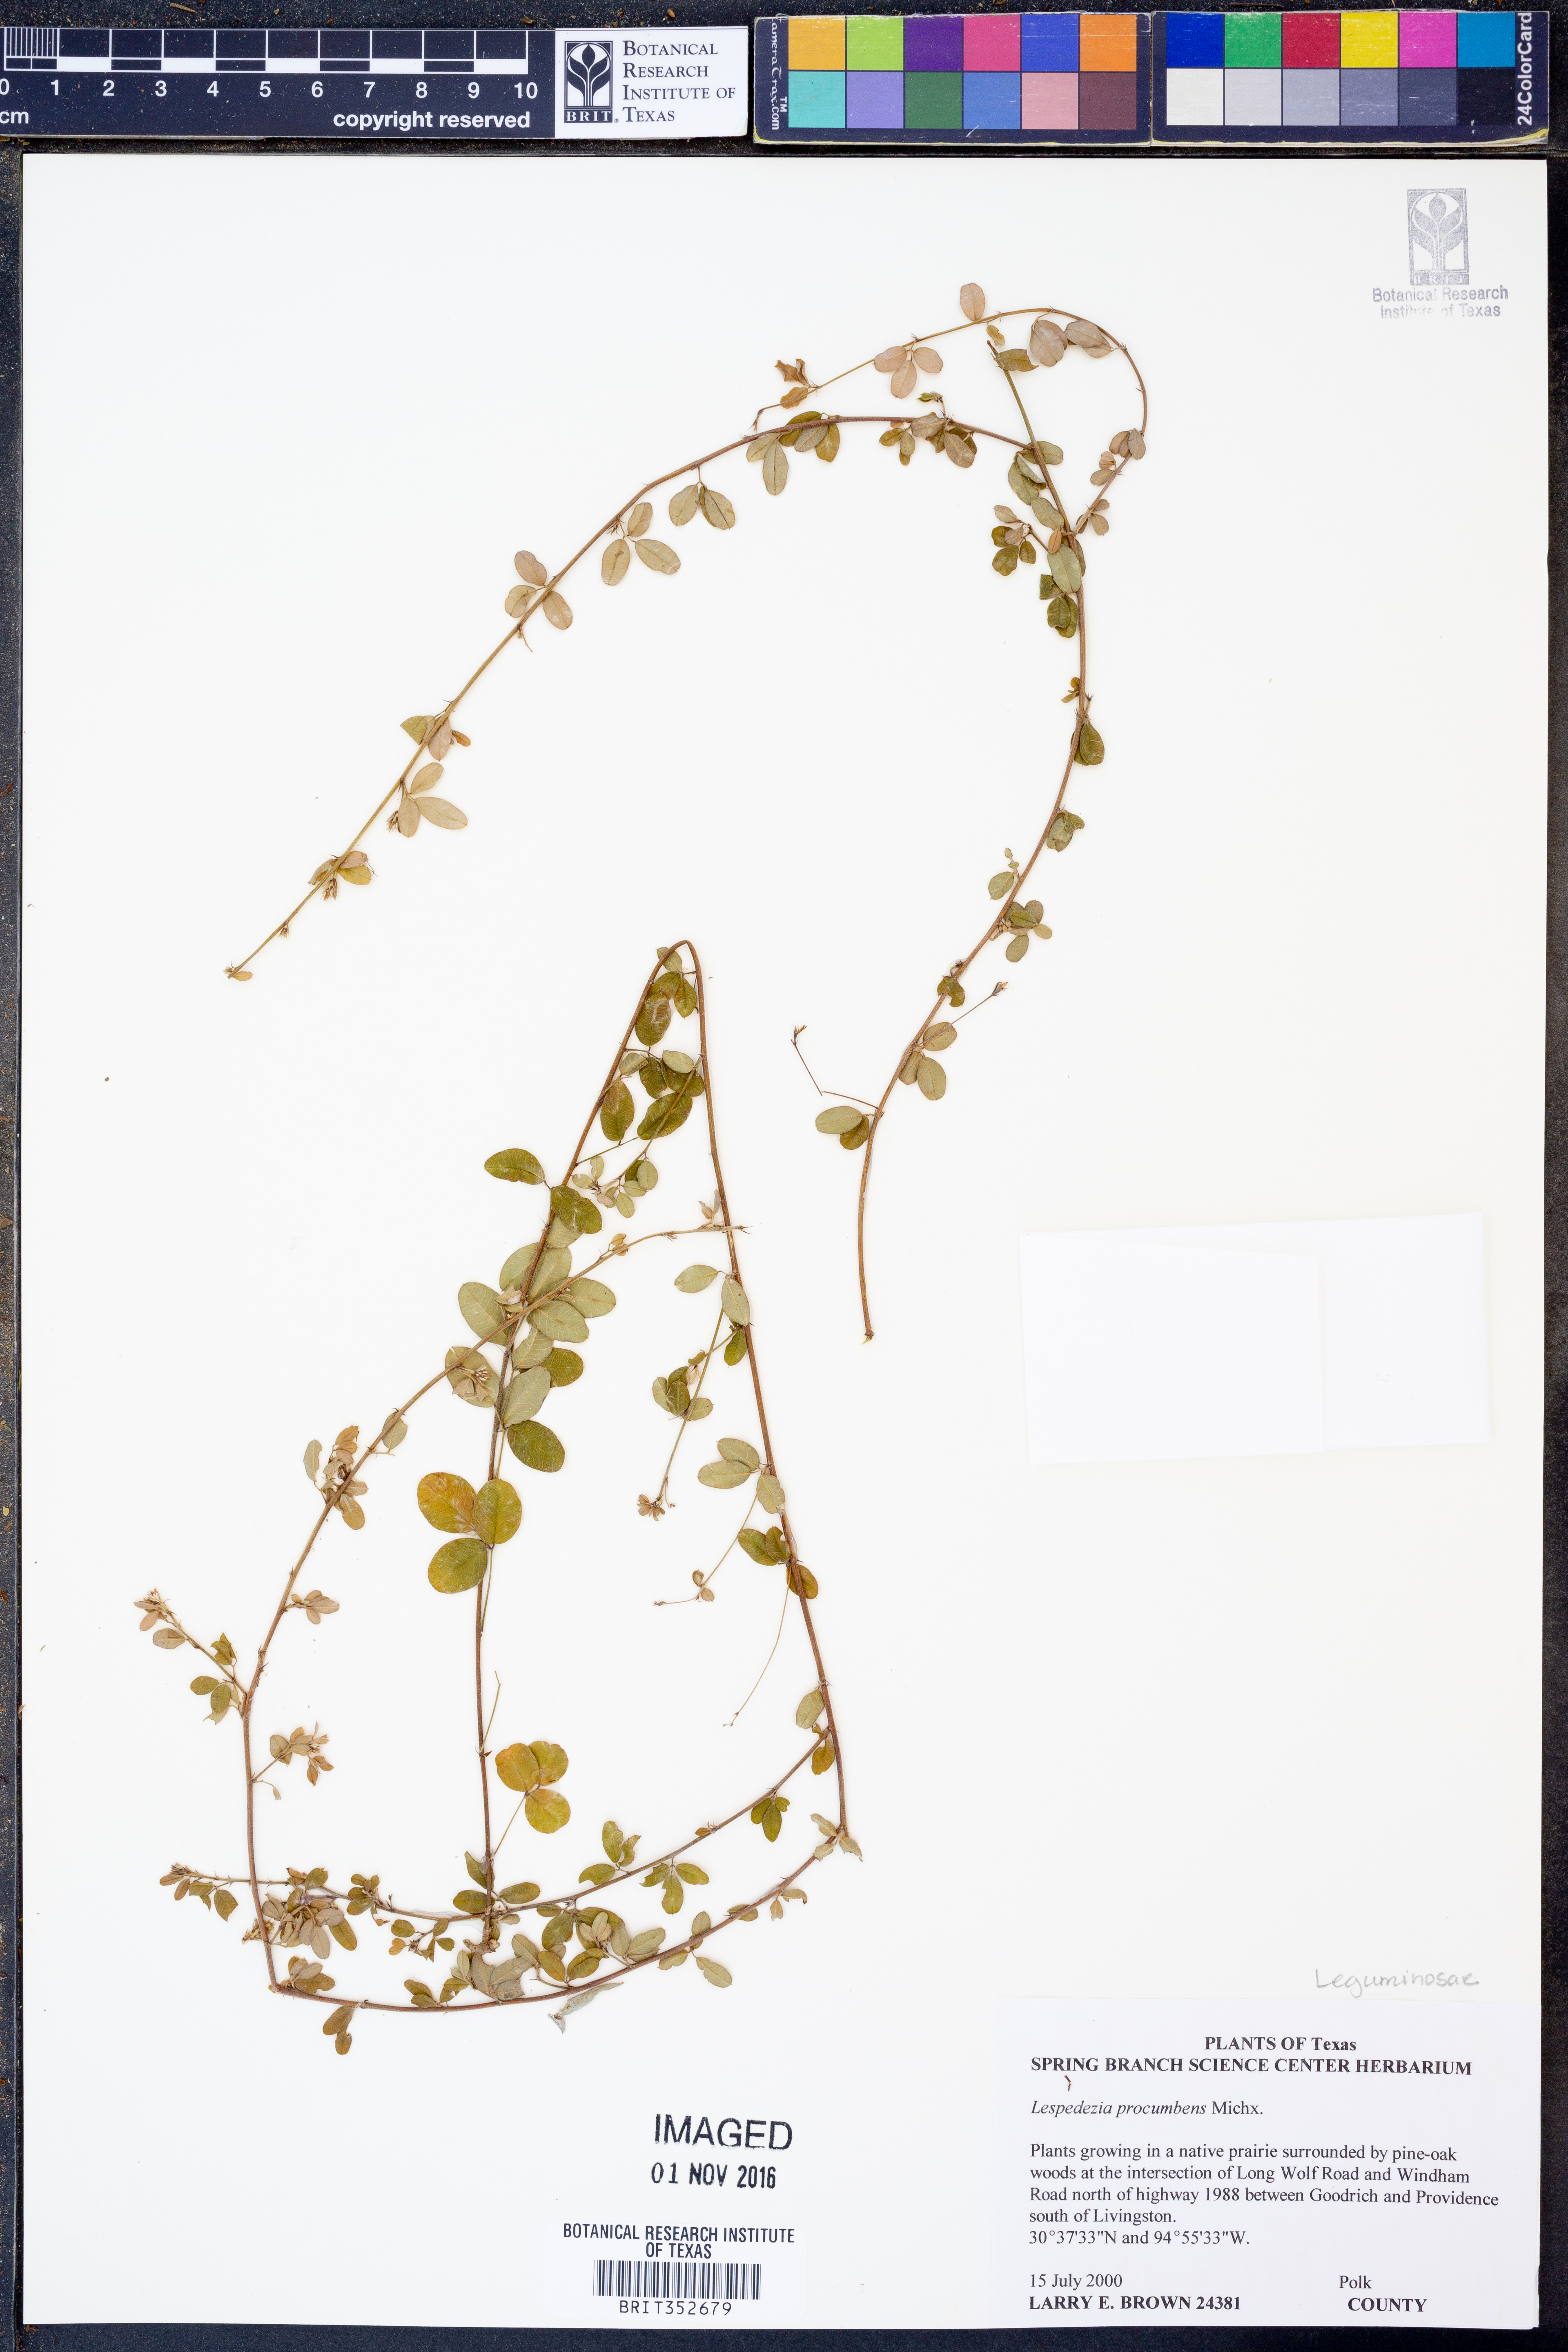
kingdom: Plantae
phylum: Tracheophyta
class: Magnoliopsida
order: Fabales
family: Fabaceae
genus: Lespedeza
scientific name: Lespedeza procumbens
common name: Downy trailing bush-clover
